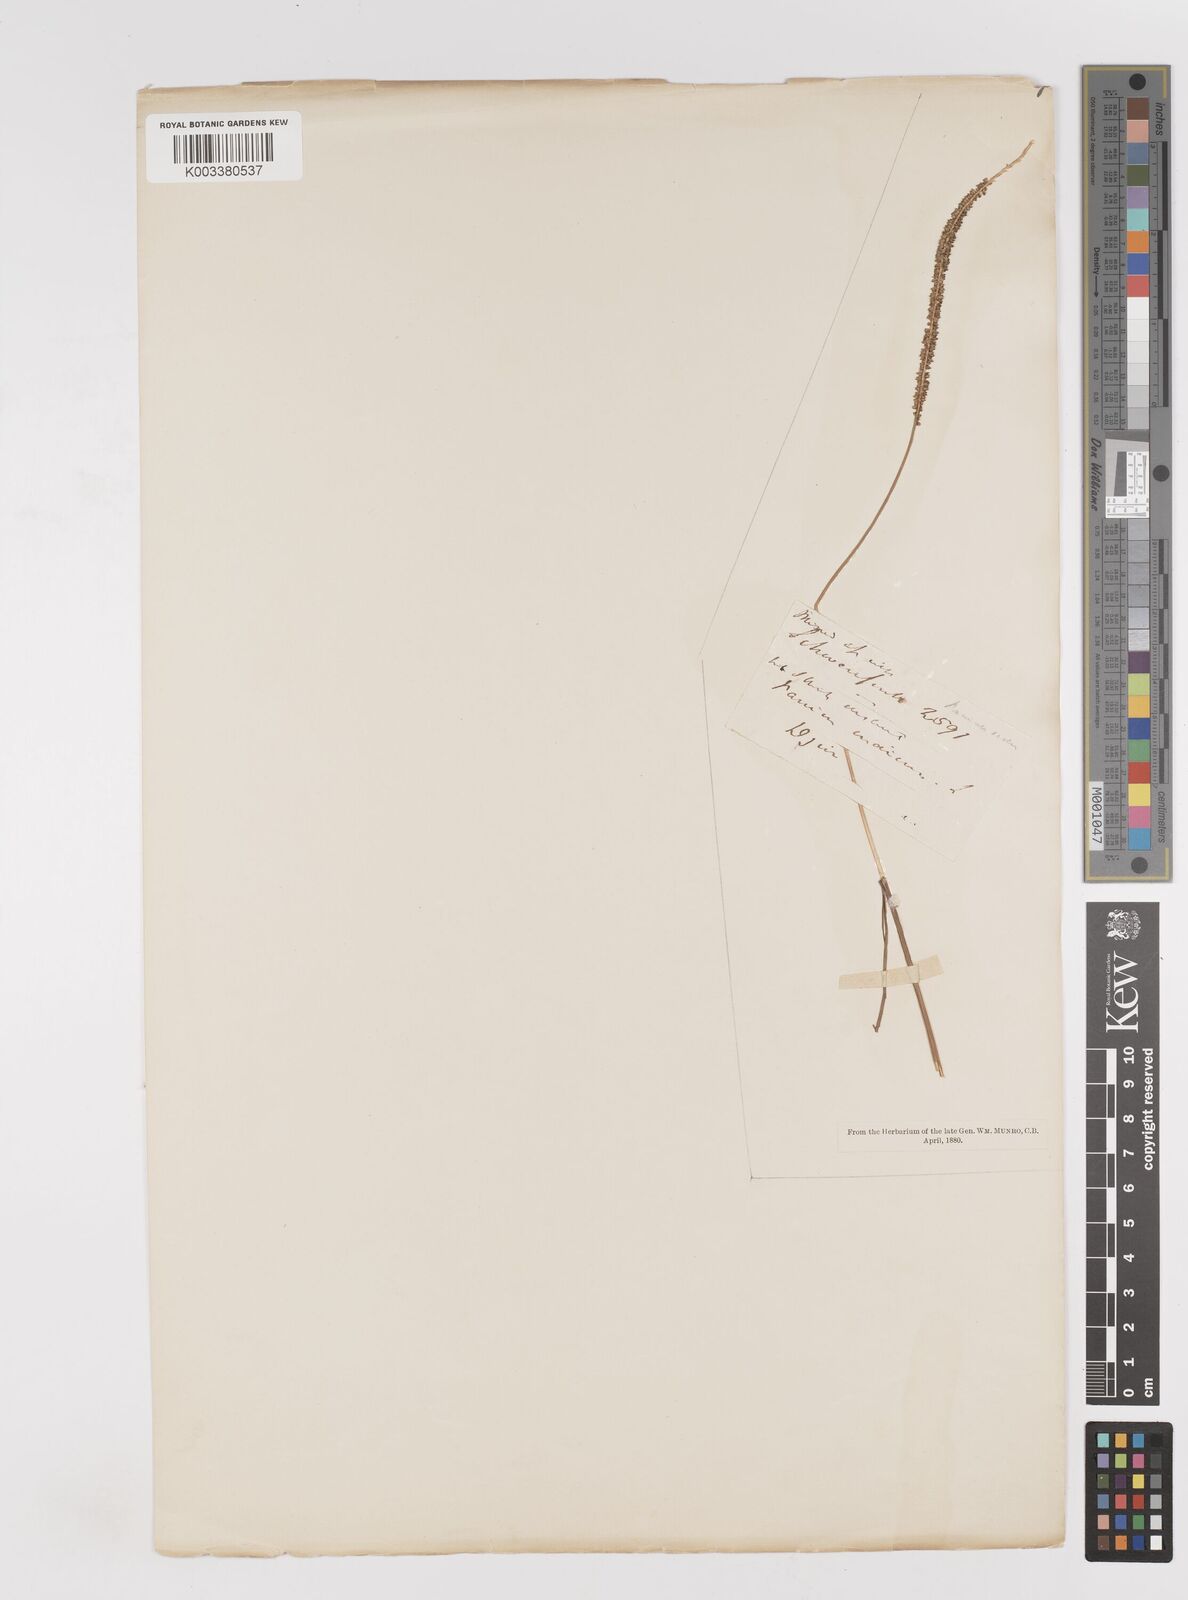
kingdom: Plantae
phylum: Tracheophyta
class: Liliopsida
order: Poales
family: Poaceae
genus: Sacciolepis
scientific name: Sacciolepis myosuroides
